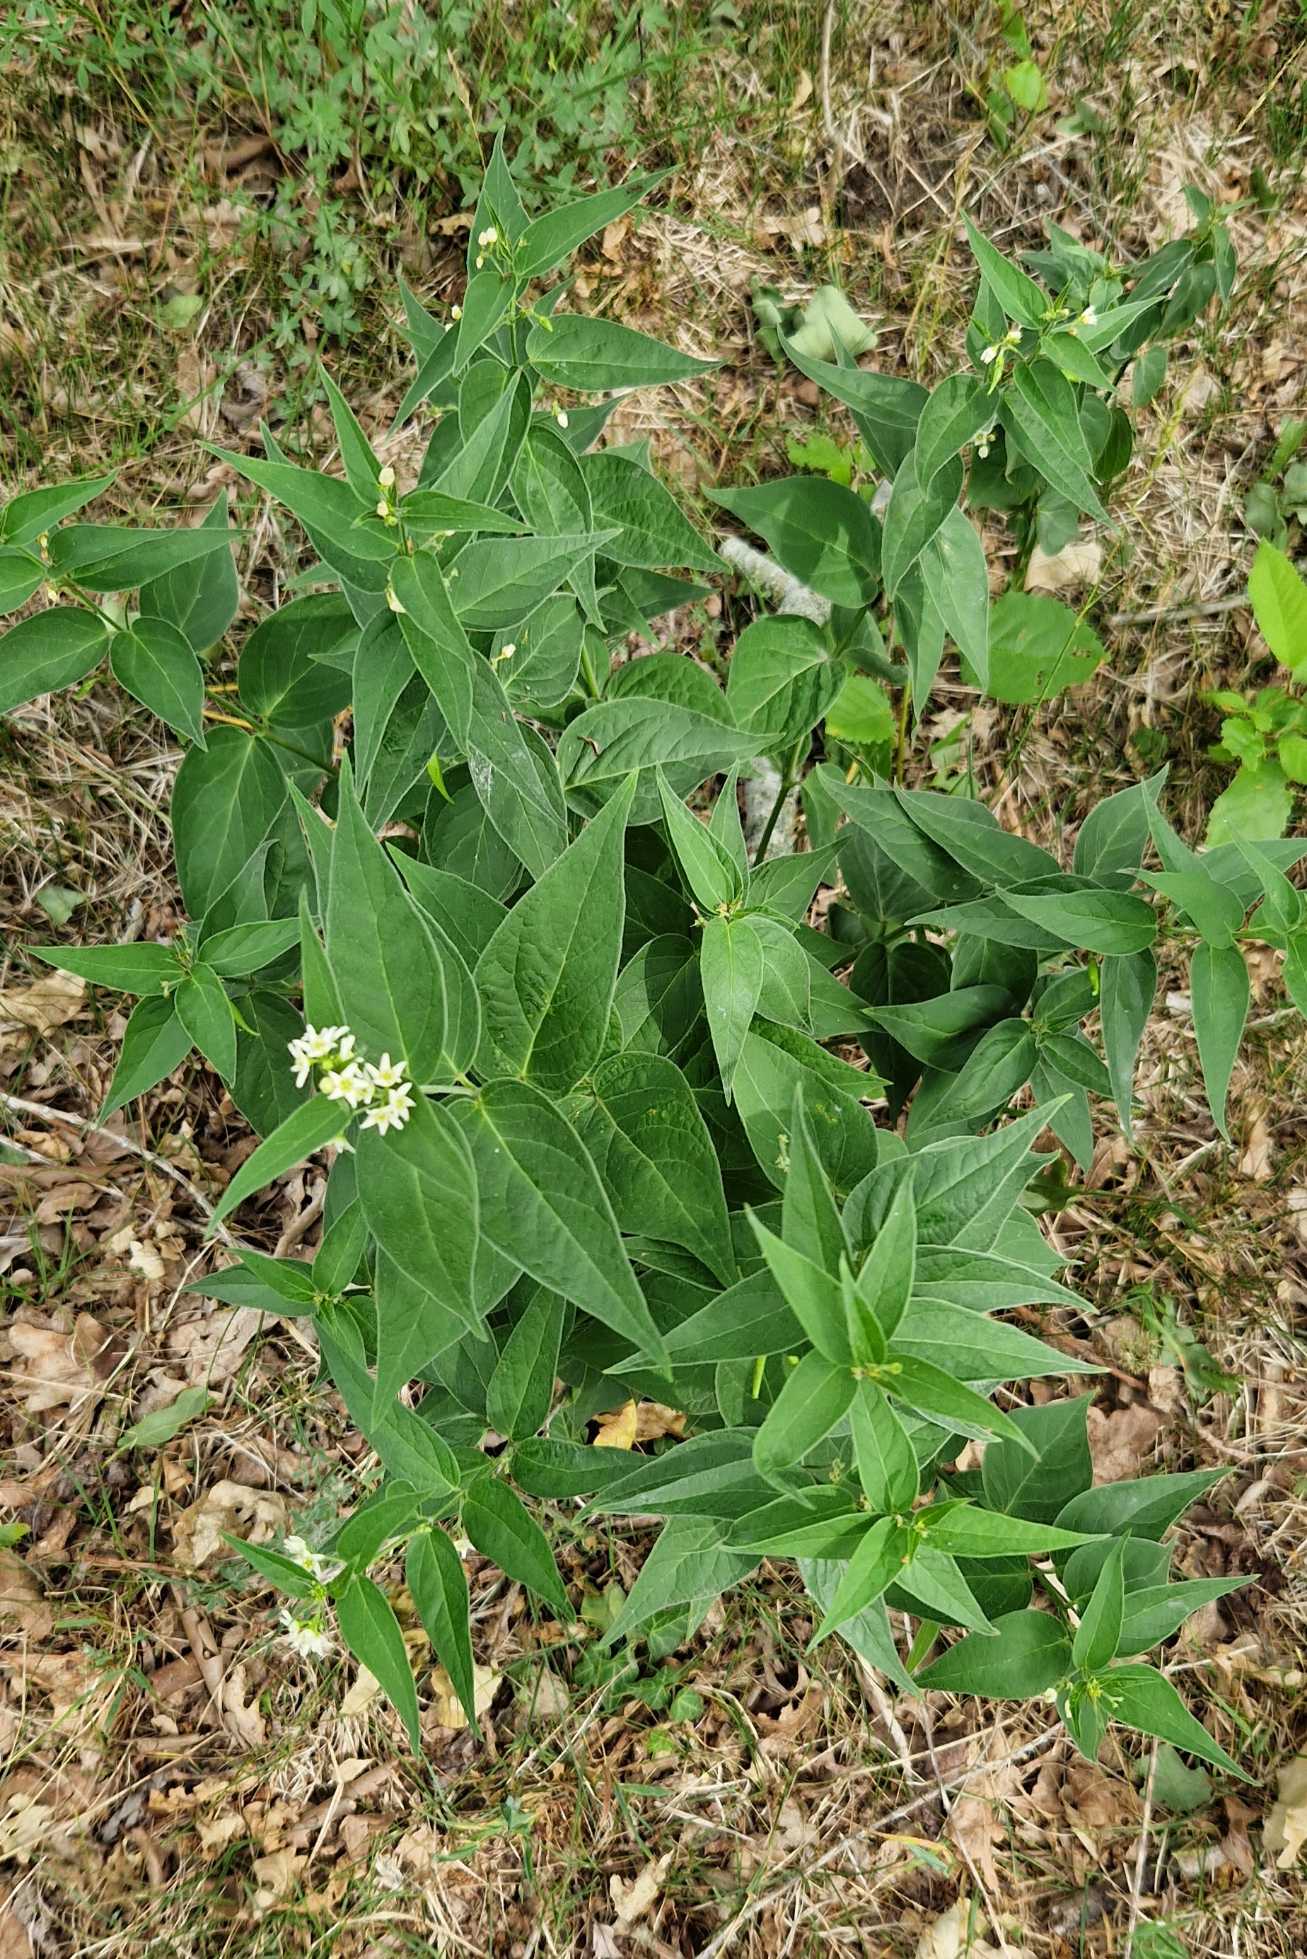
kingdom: Plantae
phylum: Tracheophyta
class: Magnoliopsida
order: Gentianales
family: Apocynaceae
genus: Vincetoxicum
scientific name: Vincetoxicum hirundinaria
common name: Svalerod
